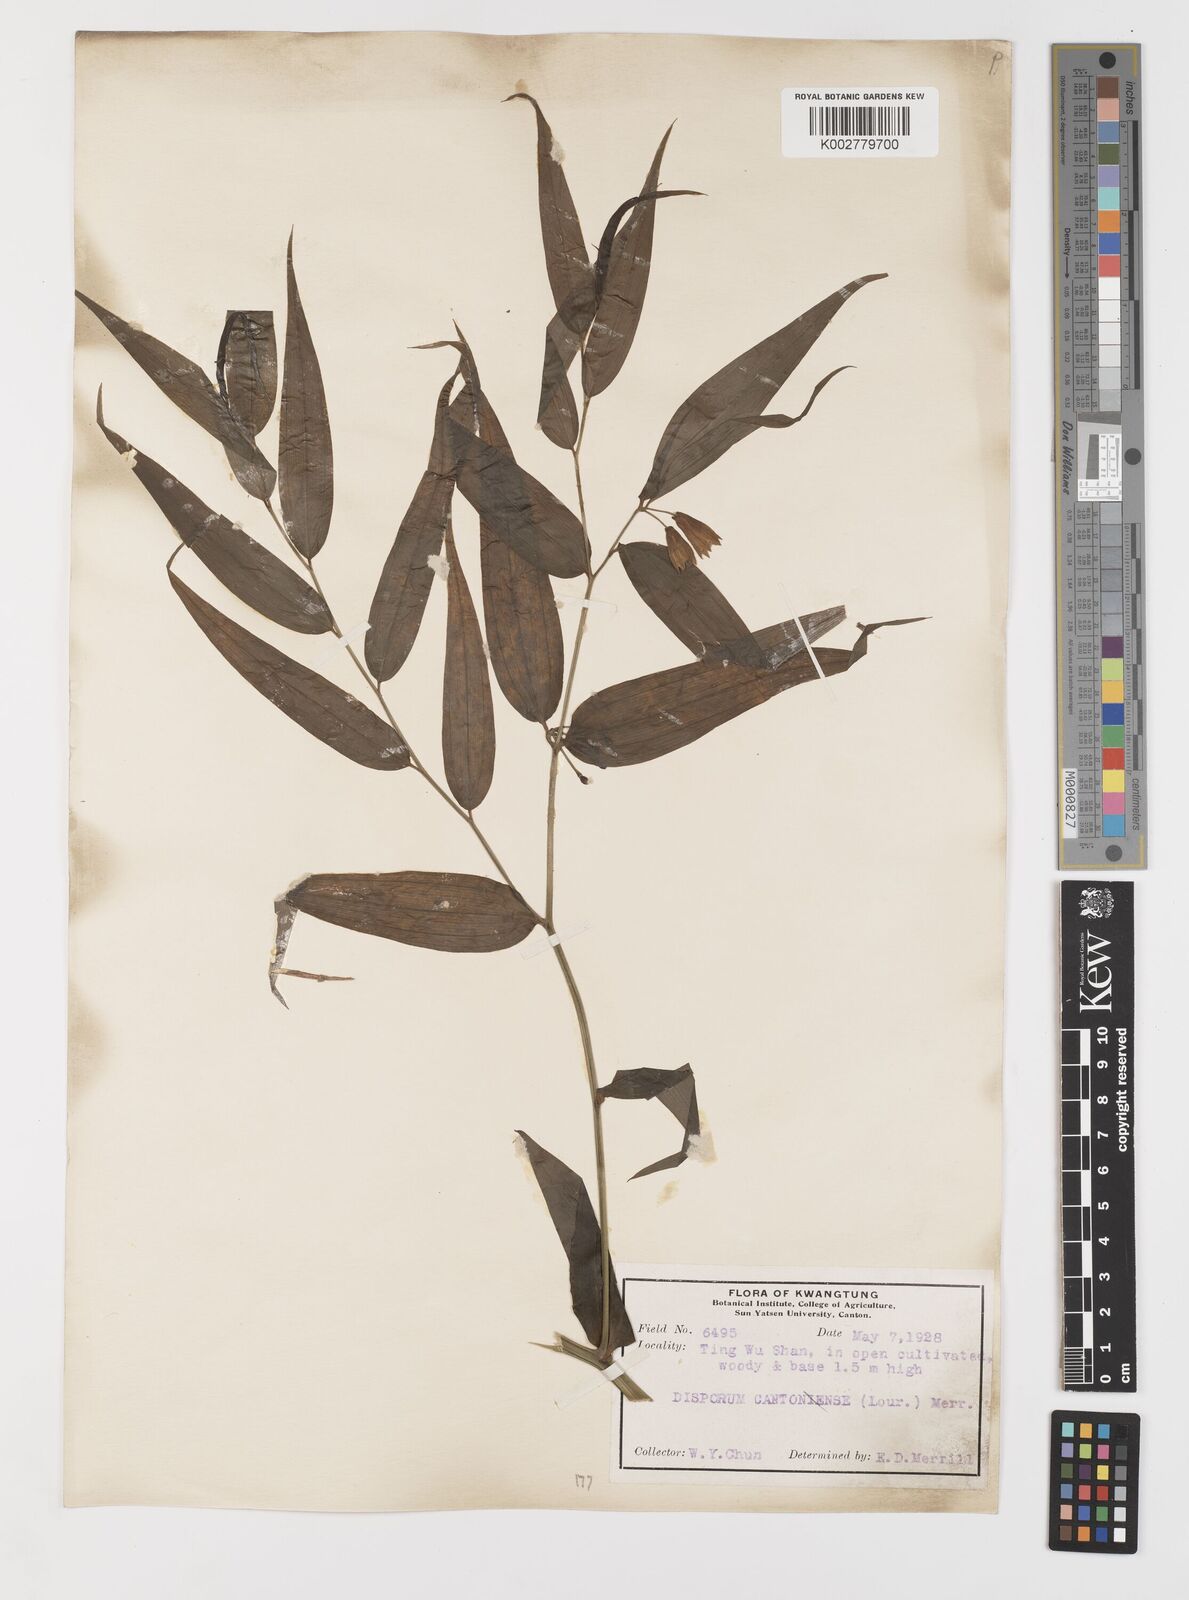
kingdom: Plantae
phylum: Tracheophyta
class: Liliopsida
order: Liliales
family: Colchicaceae
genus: Disporum
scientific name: Disporum cantoniense
